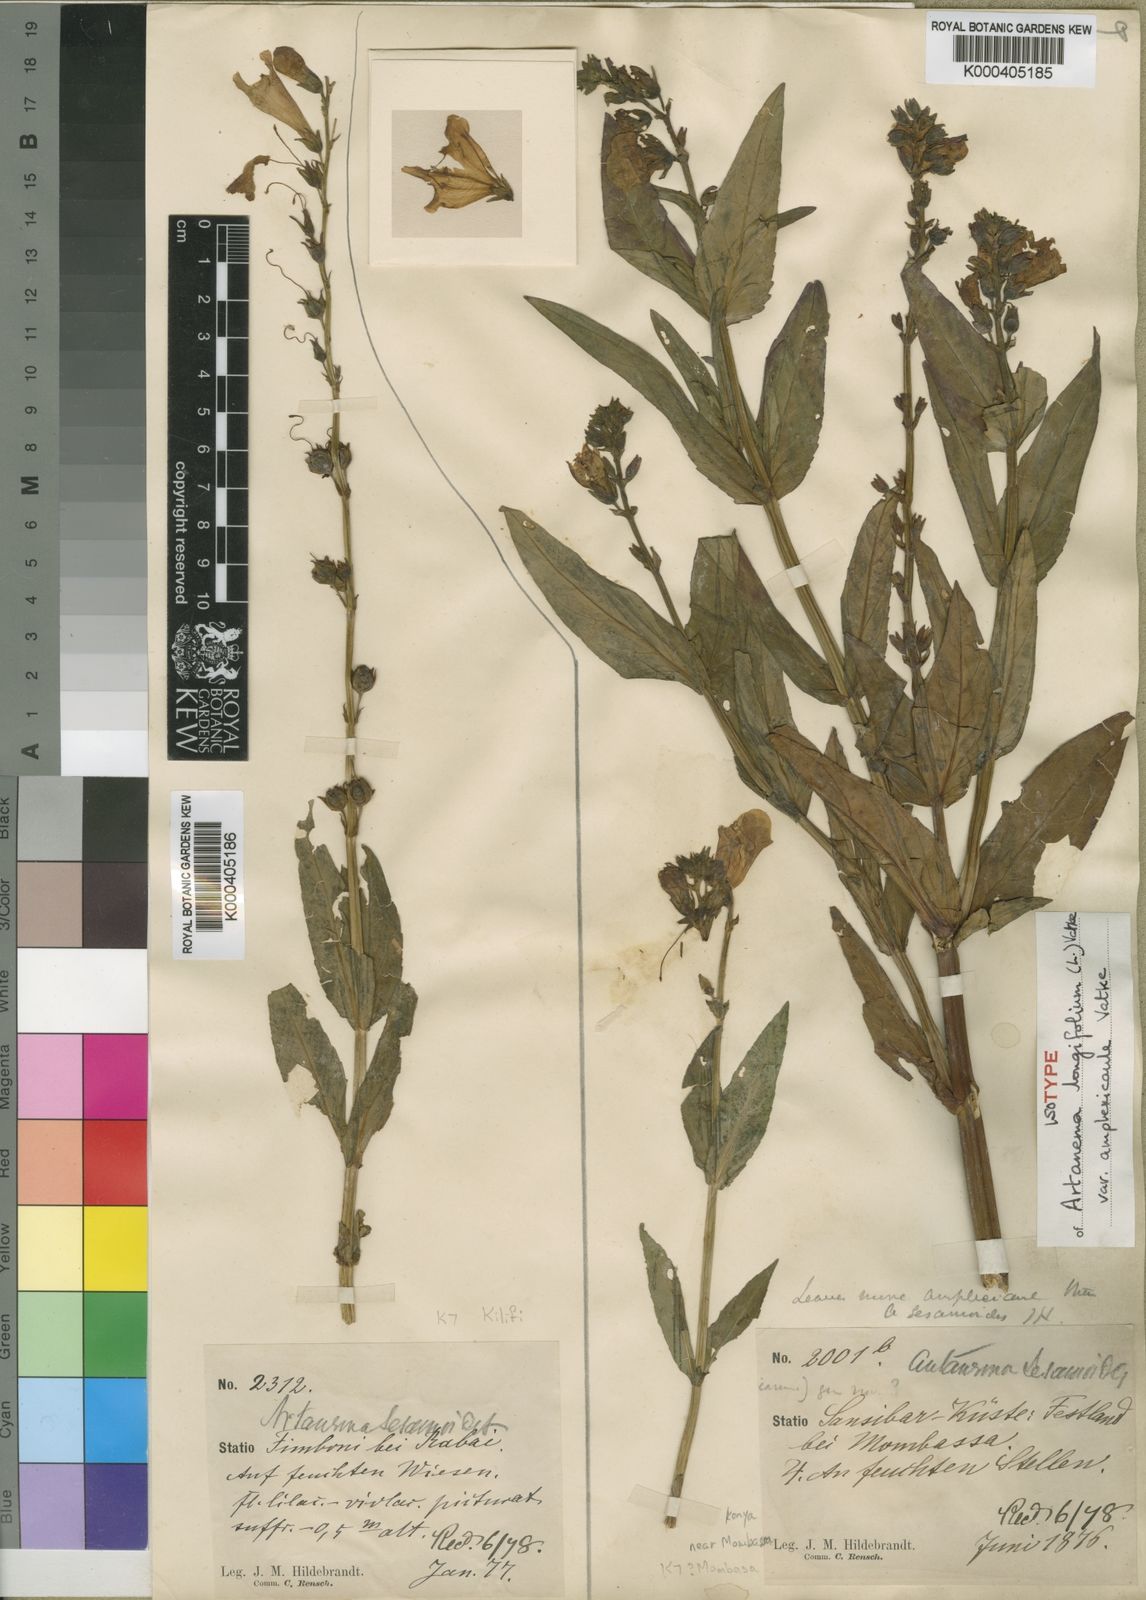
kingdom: Plantae
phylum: Tracheophyta
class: Magnoliopsida
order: Lamiales
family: Linderniaceae
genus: Artanema
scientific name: Artanema longifolium
